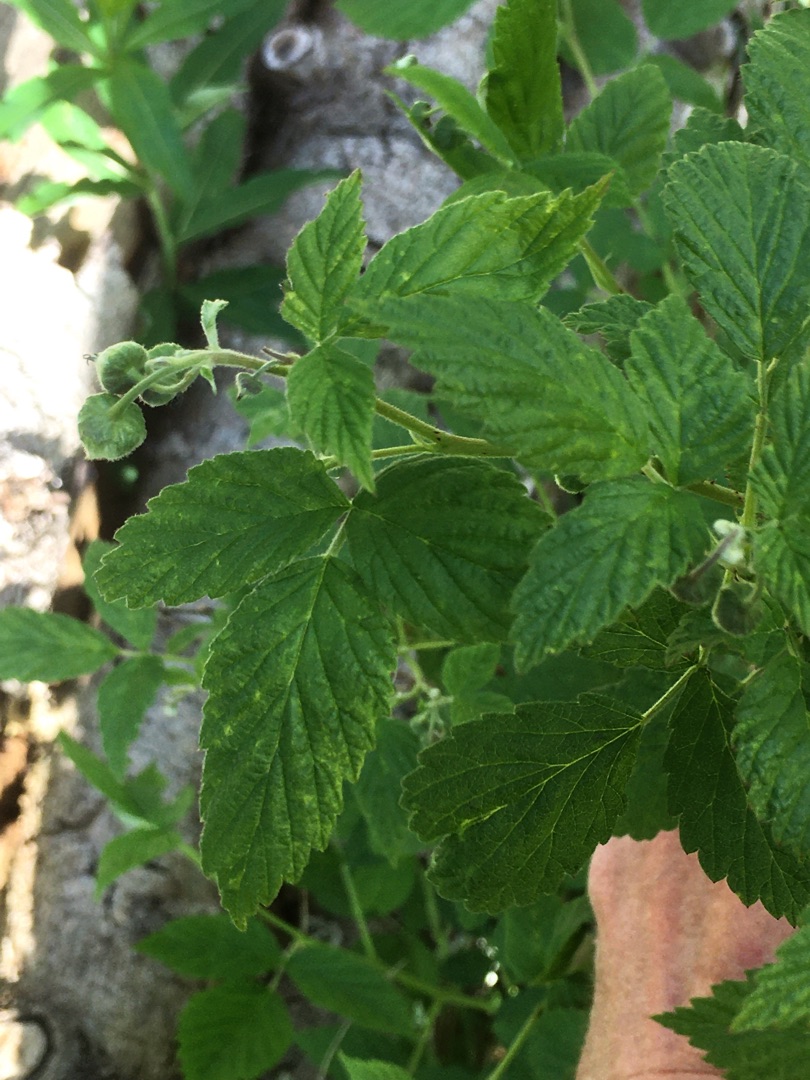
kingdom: Plantae
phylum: Tracheophyta
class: Magnoliopsida
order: Rosales
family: Rosaceae
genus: Rubus
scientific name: Rubus idaeus
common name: Hindbær
